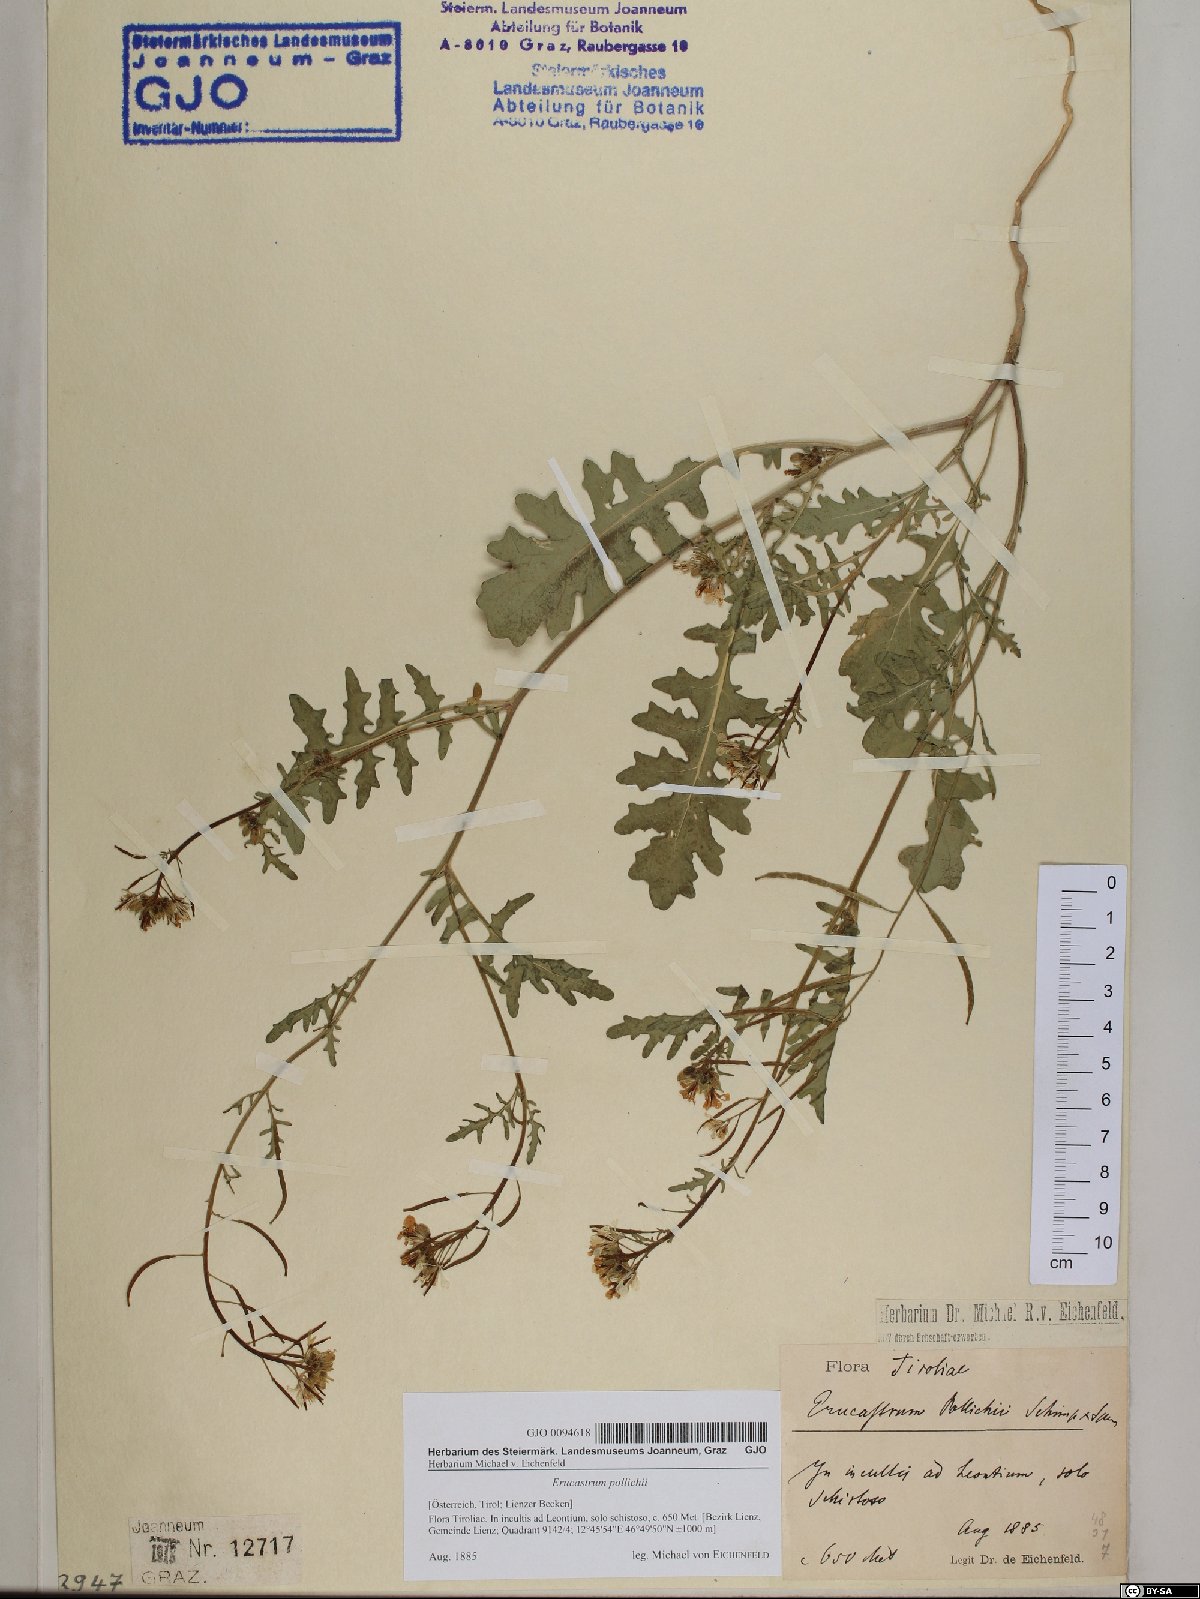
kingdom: Plantae
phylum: Tracheophyta
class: Magnoliopsida
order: Brassicales
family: Brassicaceae
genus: Erucastrum
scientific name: Erucastrum gallicum
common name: Hairy rocket
